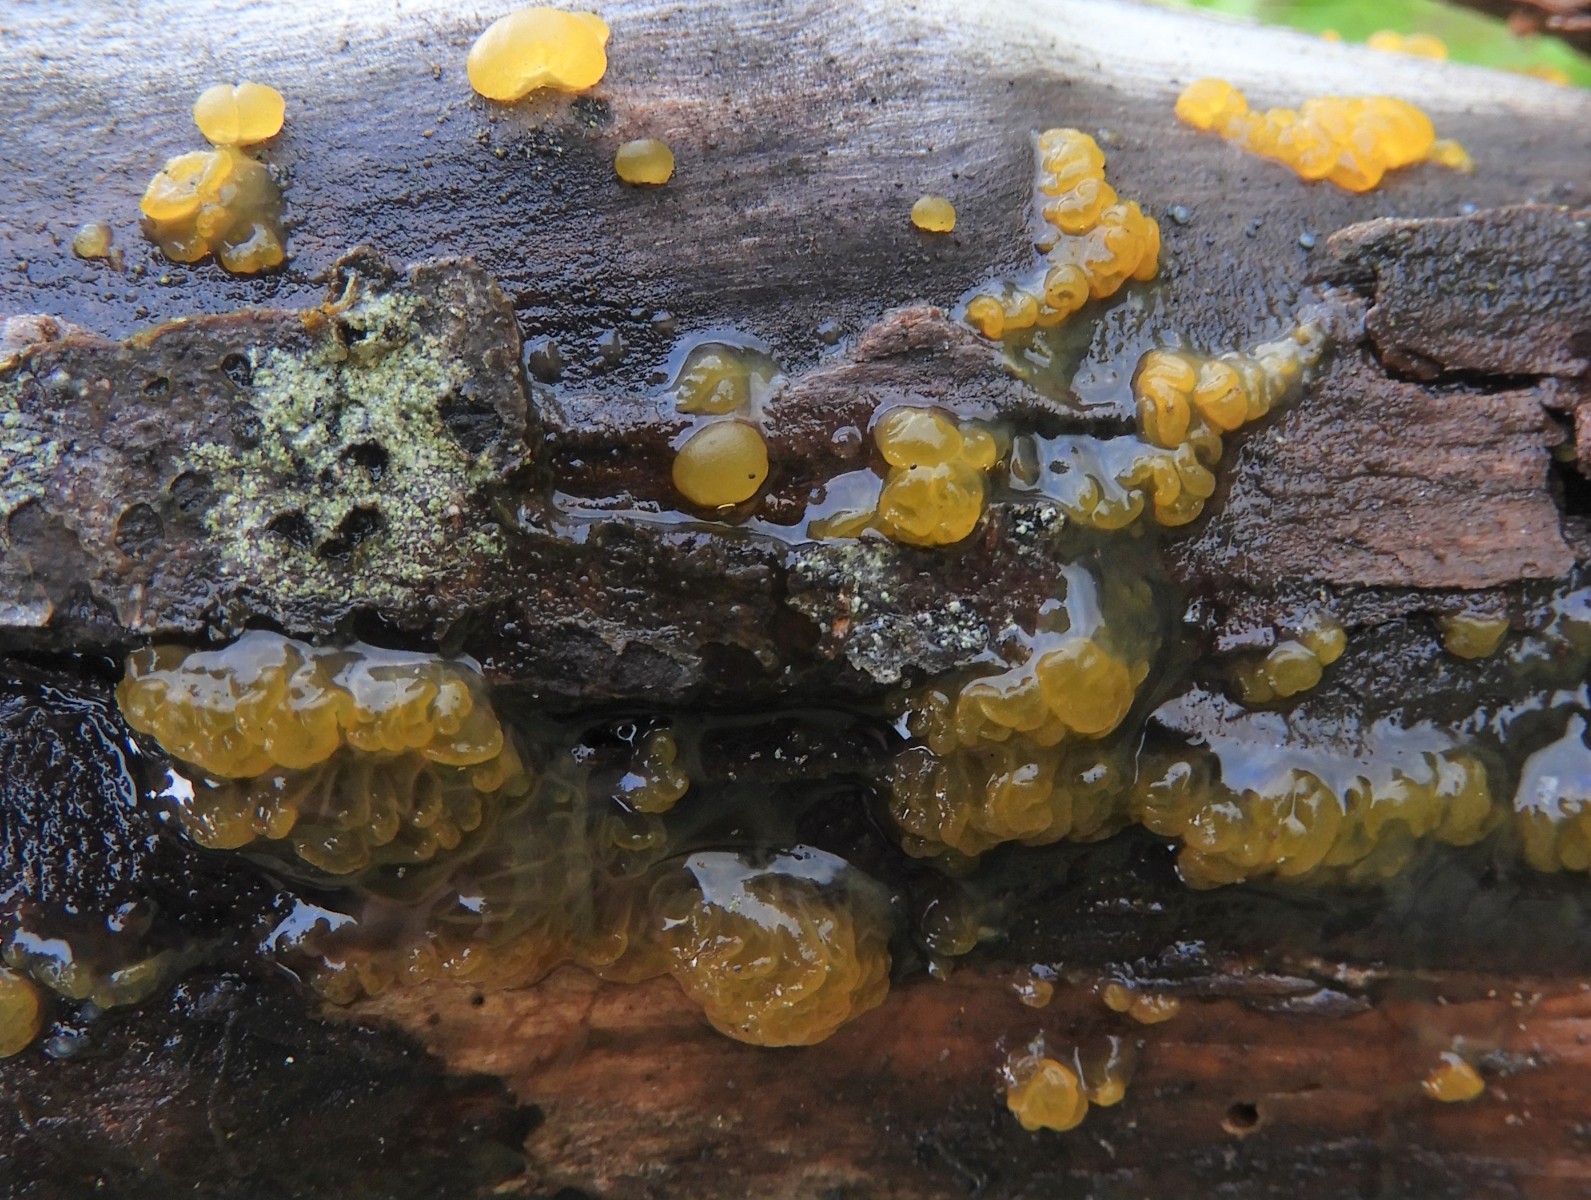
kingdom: Fungi
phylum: Basidiomycota
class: Dacrymycetes
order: Dacrymycetales
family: Dacrymycetaceae
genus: Dacrymyces
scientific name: Dacrymyces lacrymalis
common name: rynket tåresvamp
